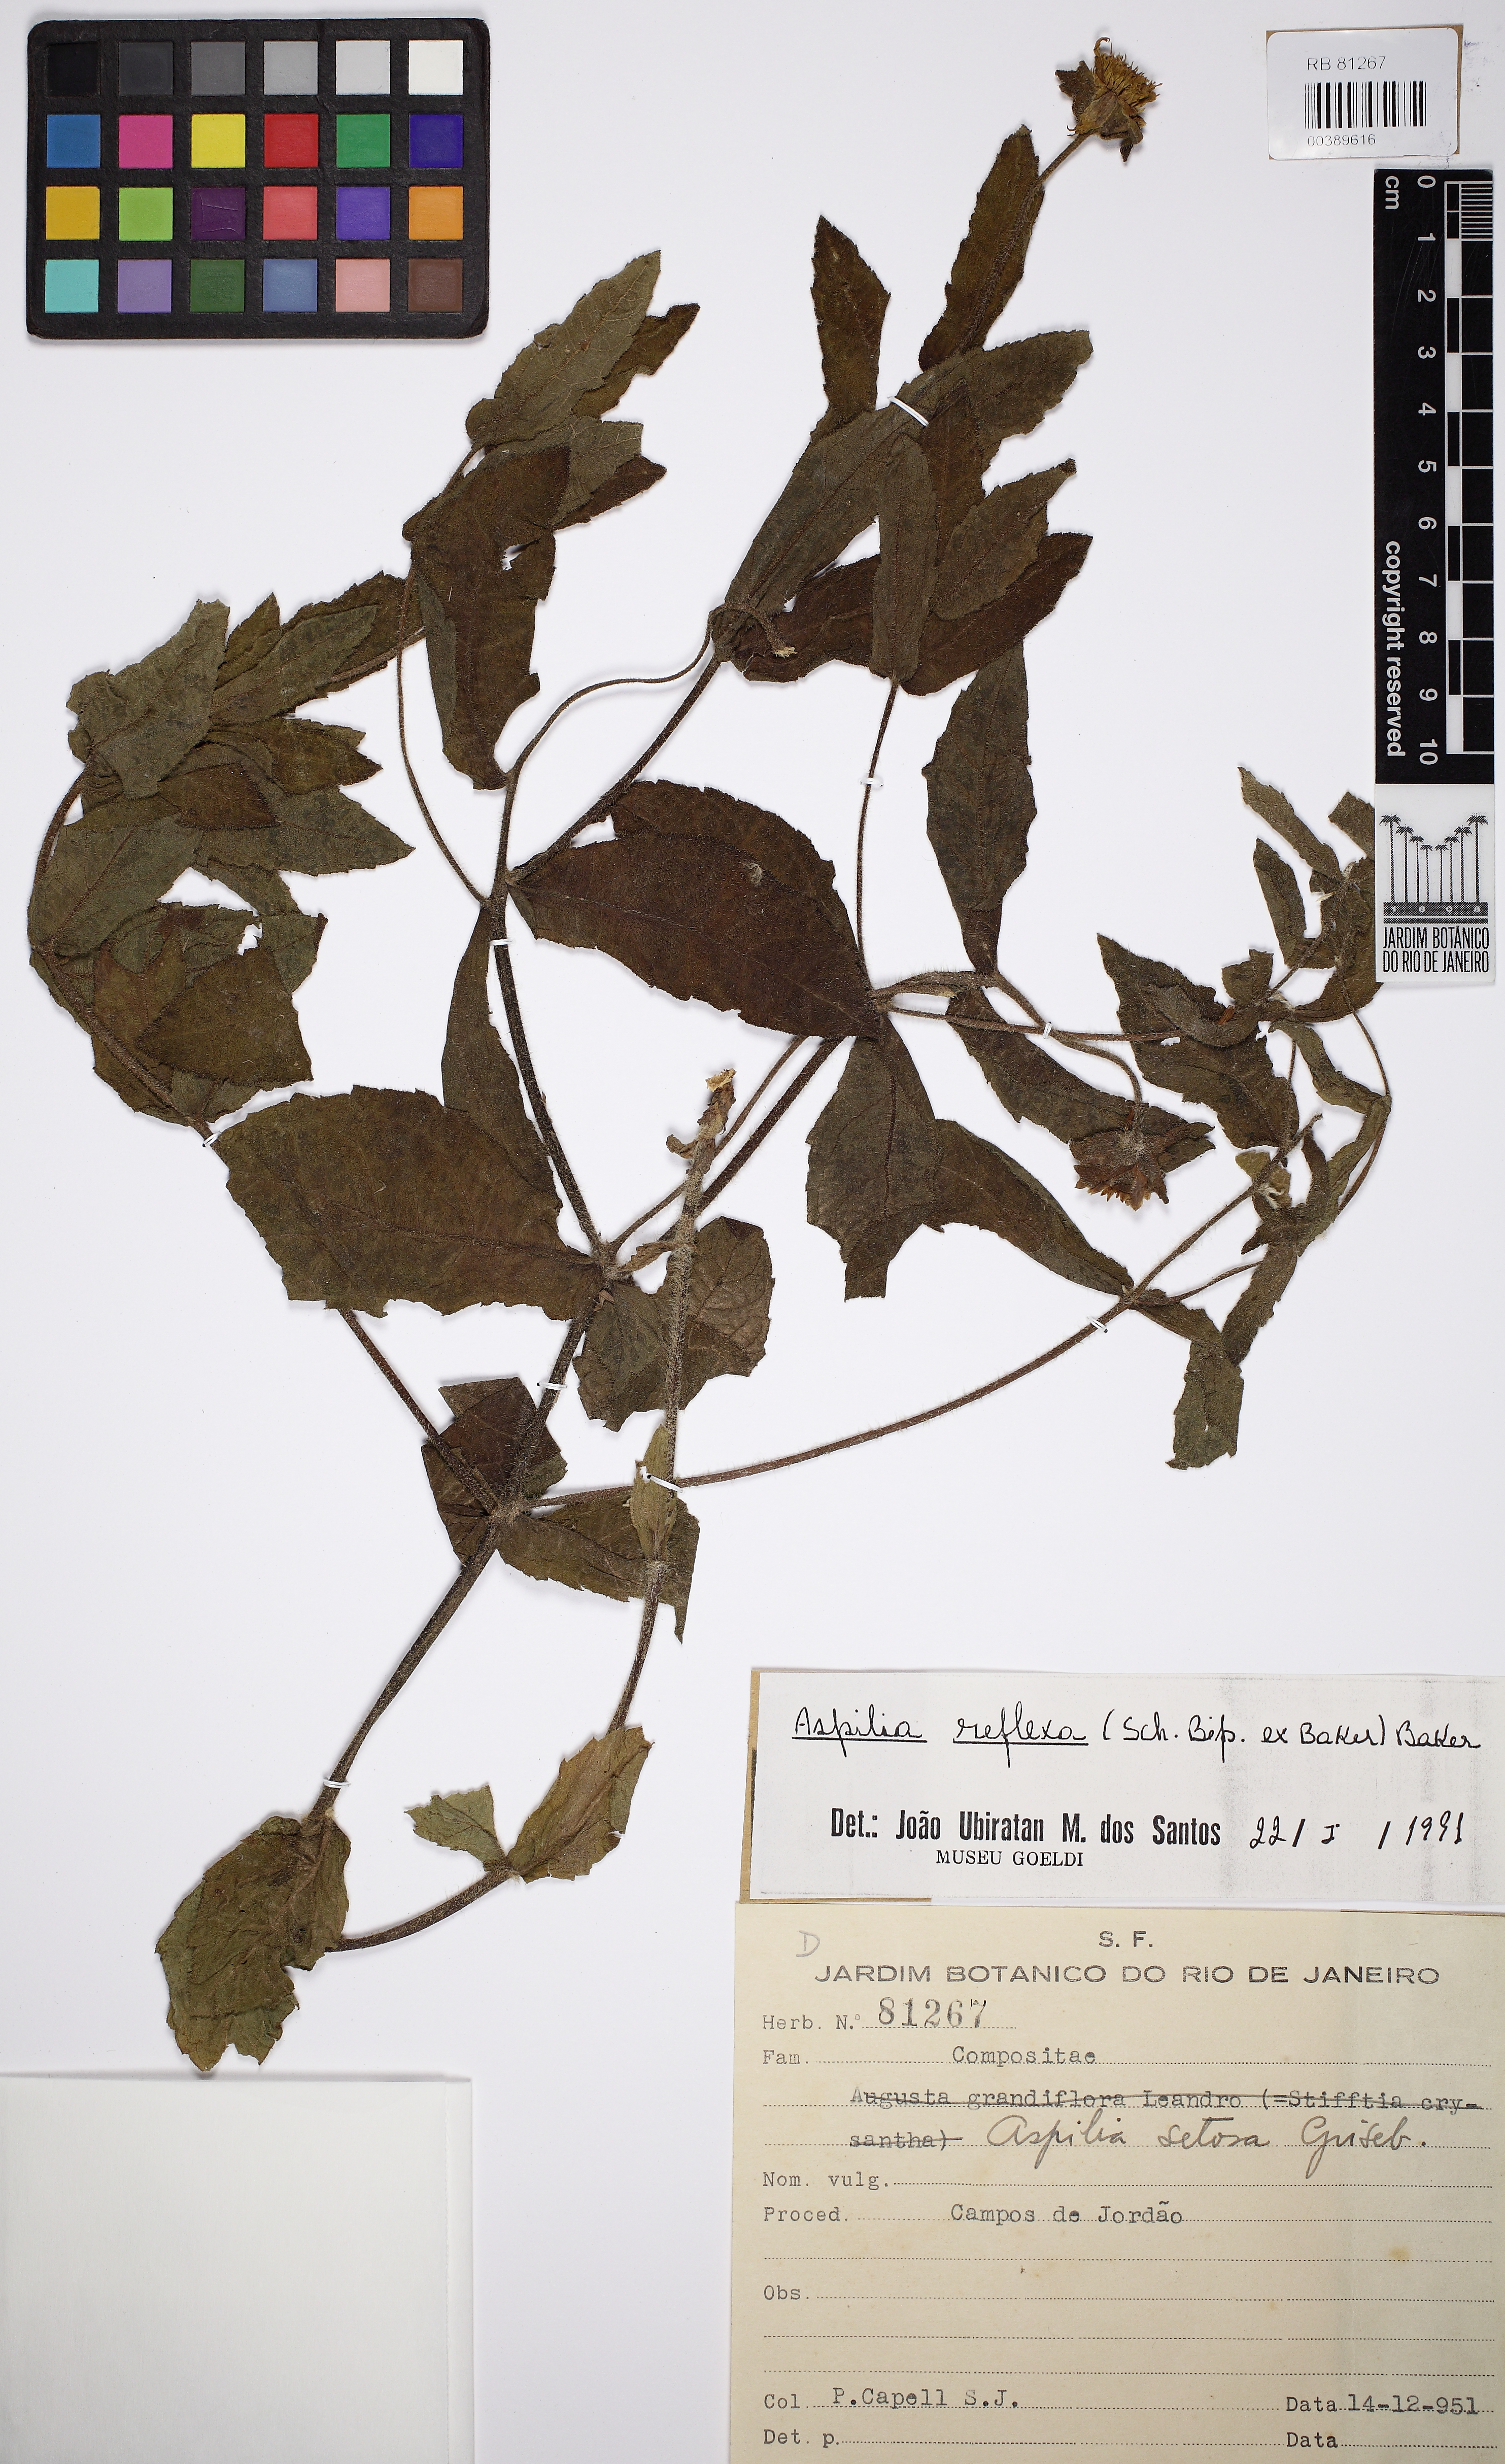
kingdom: Plantae
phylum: Tracheophyta
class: Magnoliopsida
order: Asterales
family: Asteraceae
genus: Wedelia
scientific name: Wedelia reflexa
